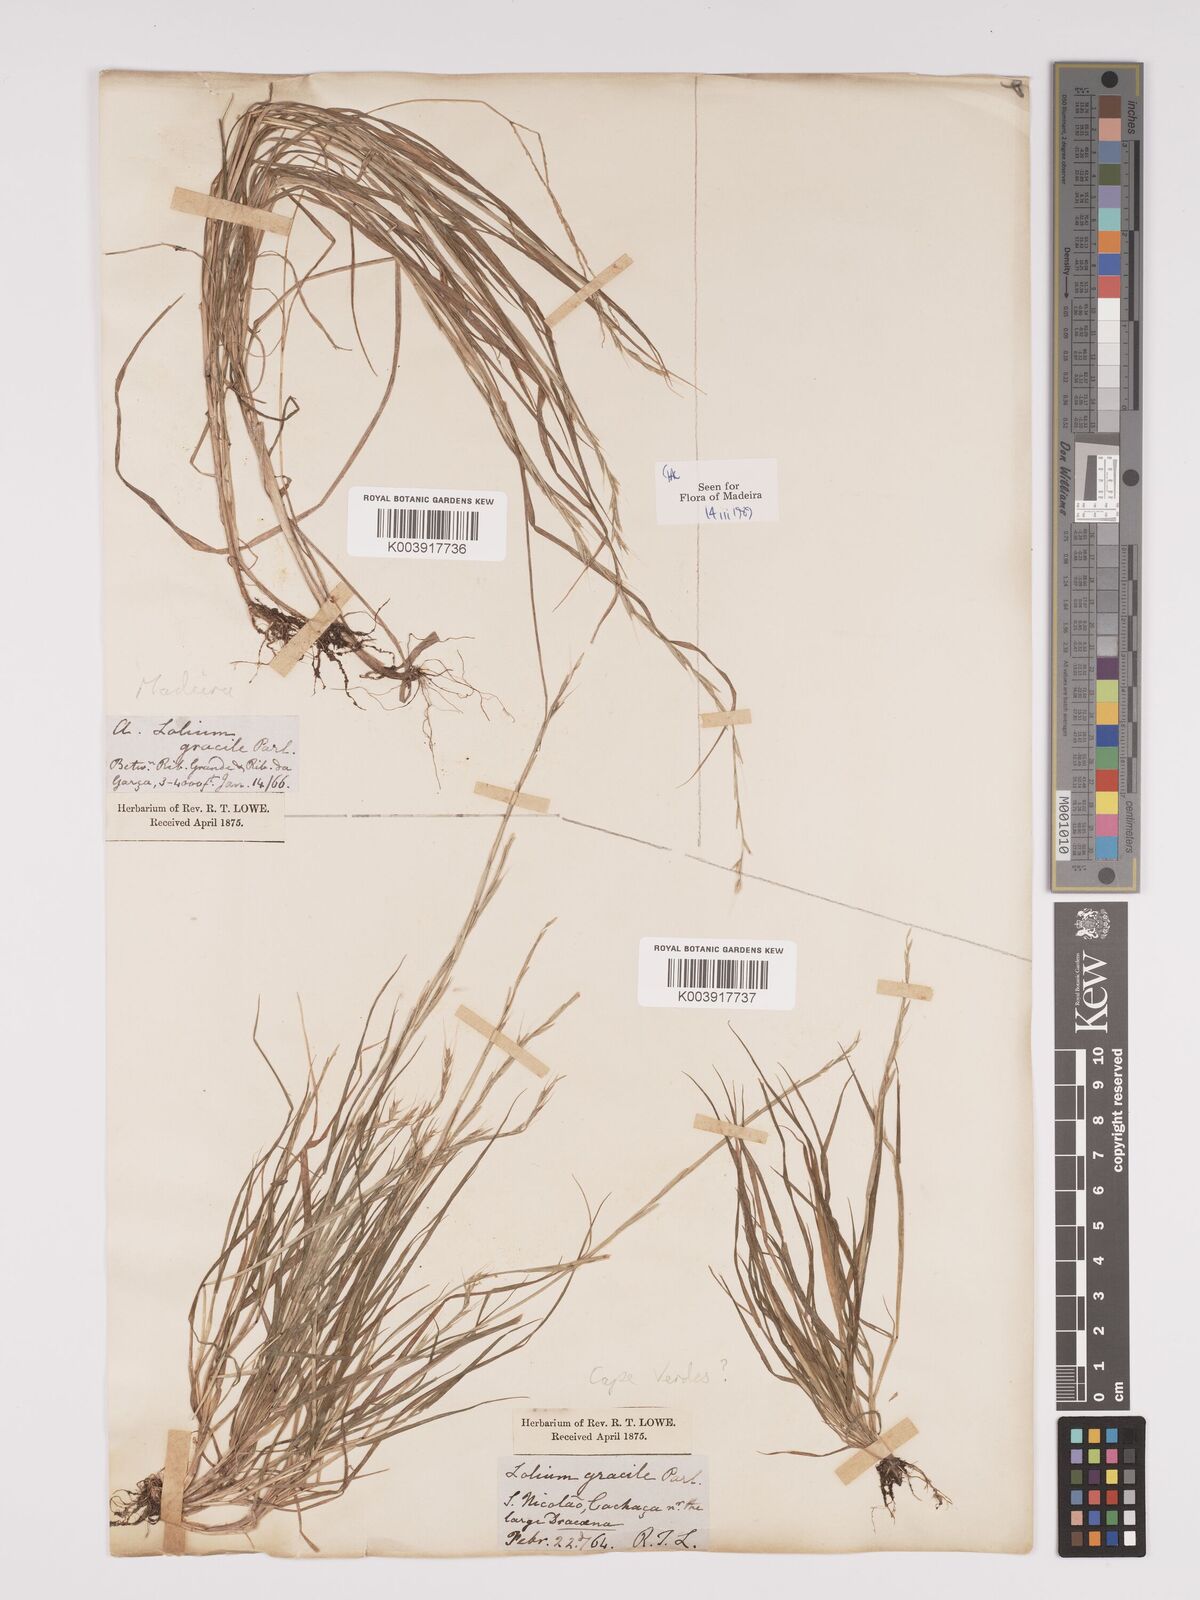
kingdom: Plantae
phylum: Tracheophyta
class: Liliopsida
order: Poales
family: Poaceae
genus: Lolium
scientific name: Lolium canariense
